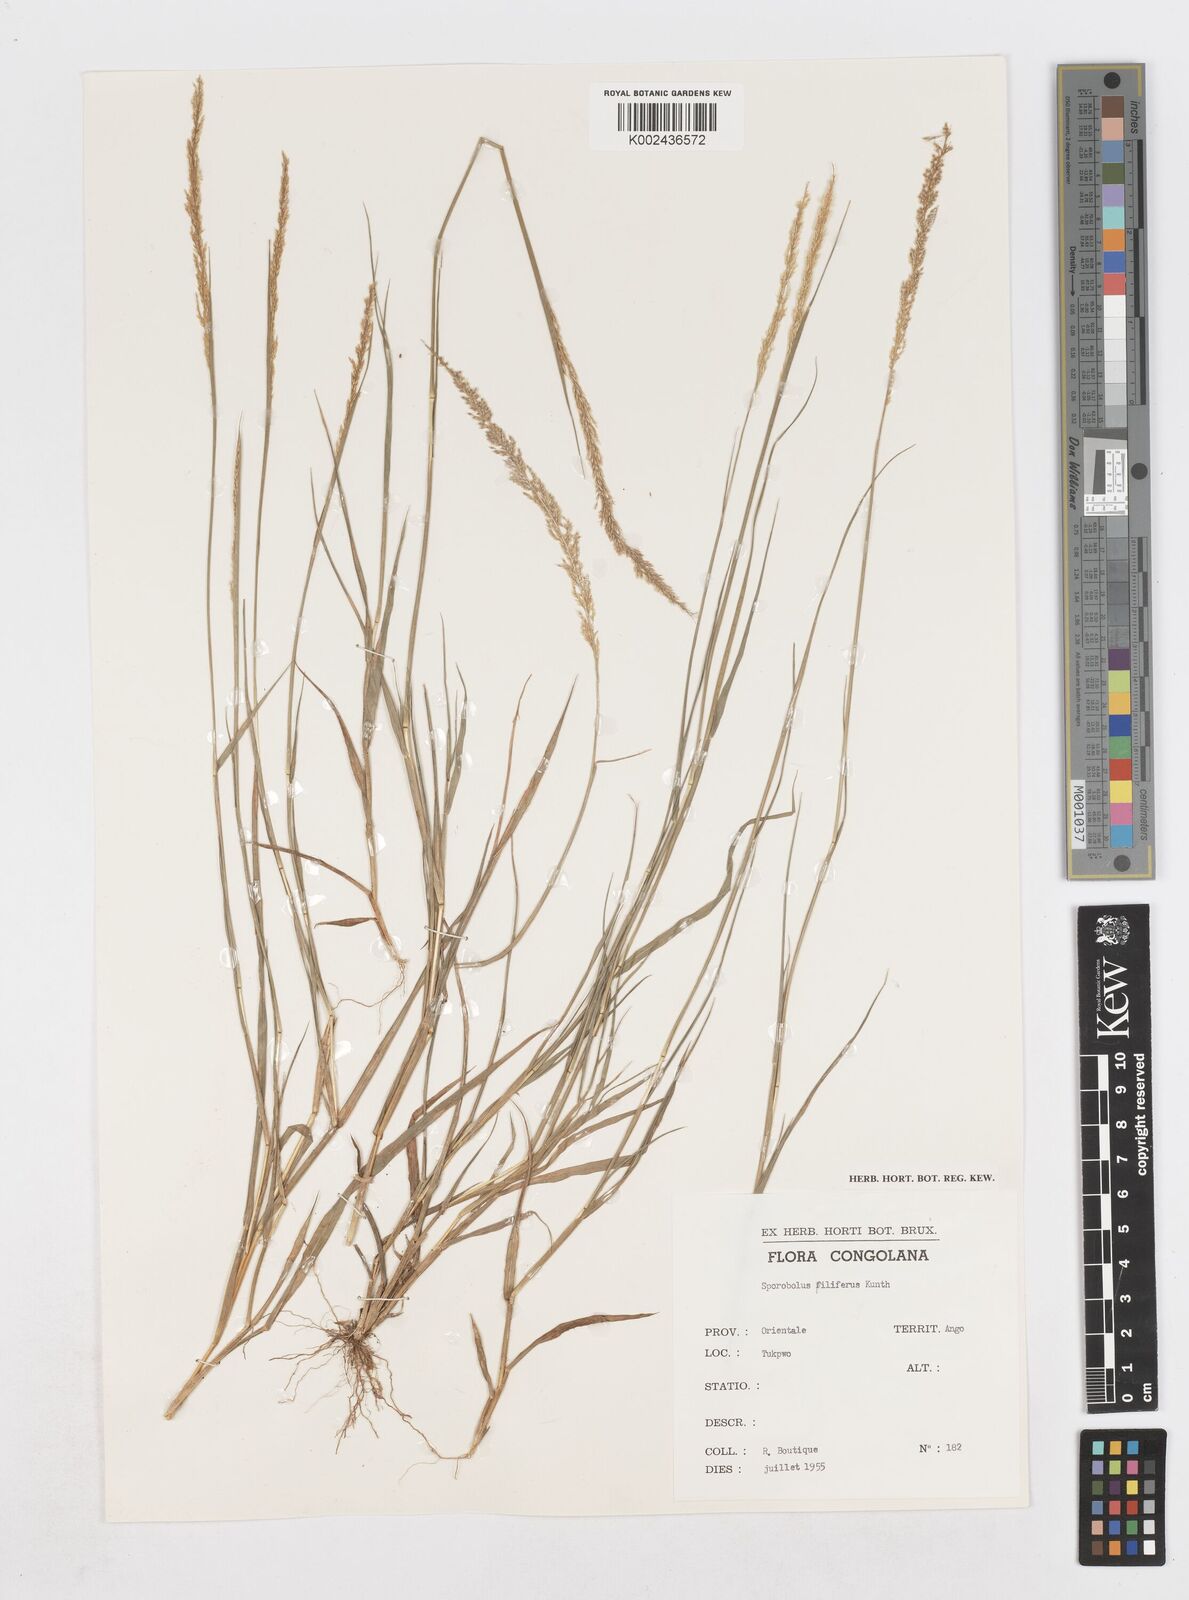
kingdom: Plantae
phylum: Tracheophyta
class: Liliopsida
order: Poales
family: Poaceae
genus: Sporobolus
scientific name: Sporobolus pilifer
